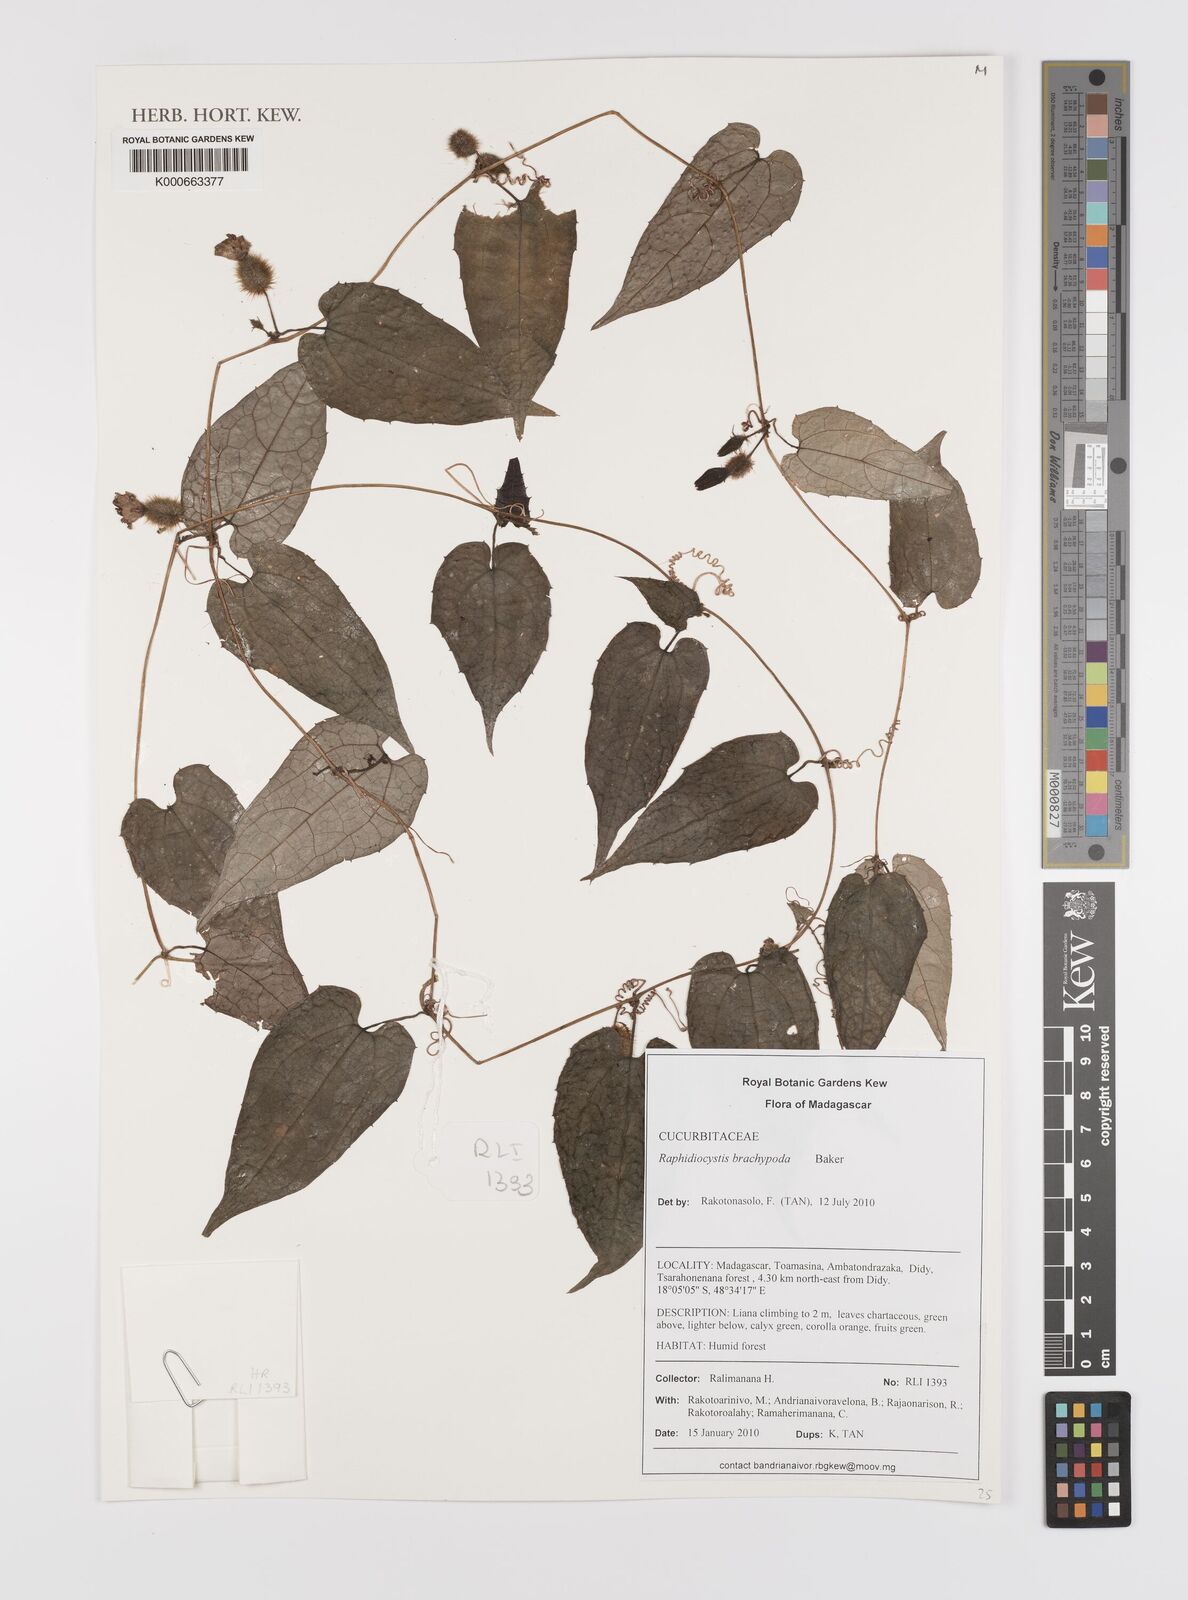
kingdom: Plantae
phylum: Tracheophyta
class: Magnoliopsida
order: Cucurbitales
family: Cucurbitaceae
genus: Raphidiocystis
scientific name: Raphidiocystis brachypoda
